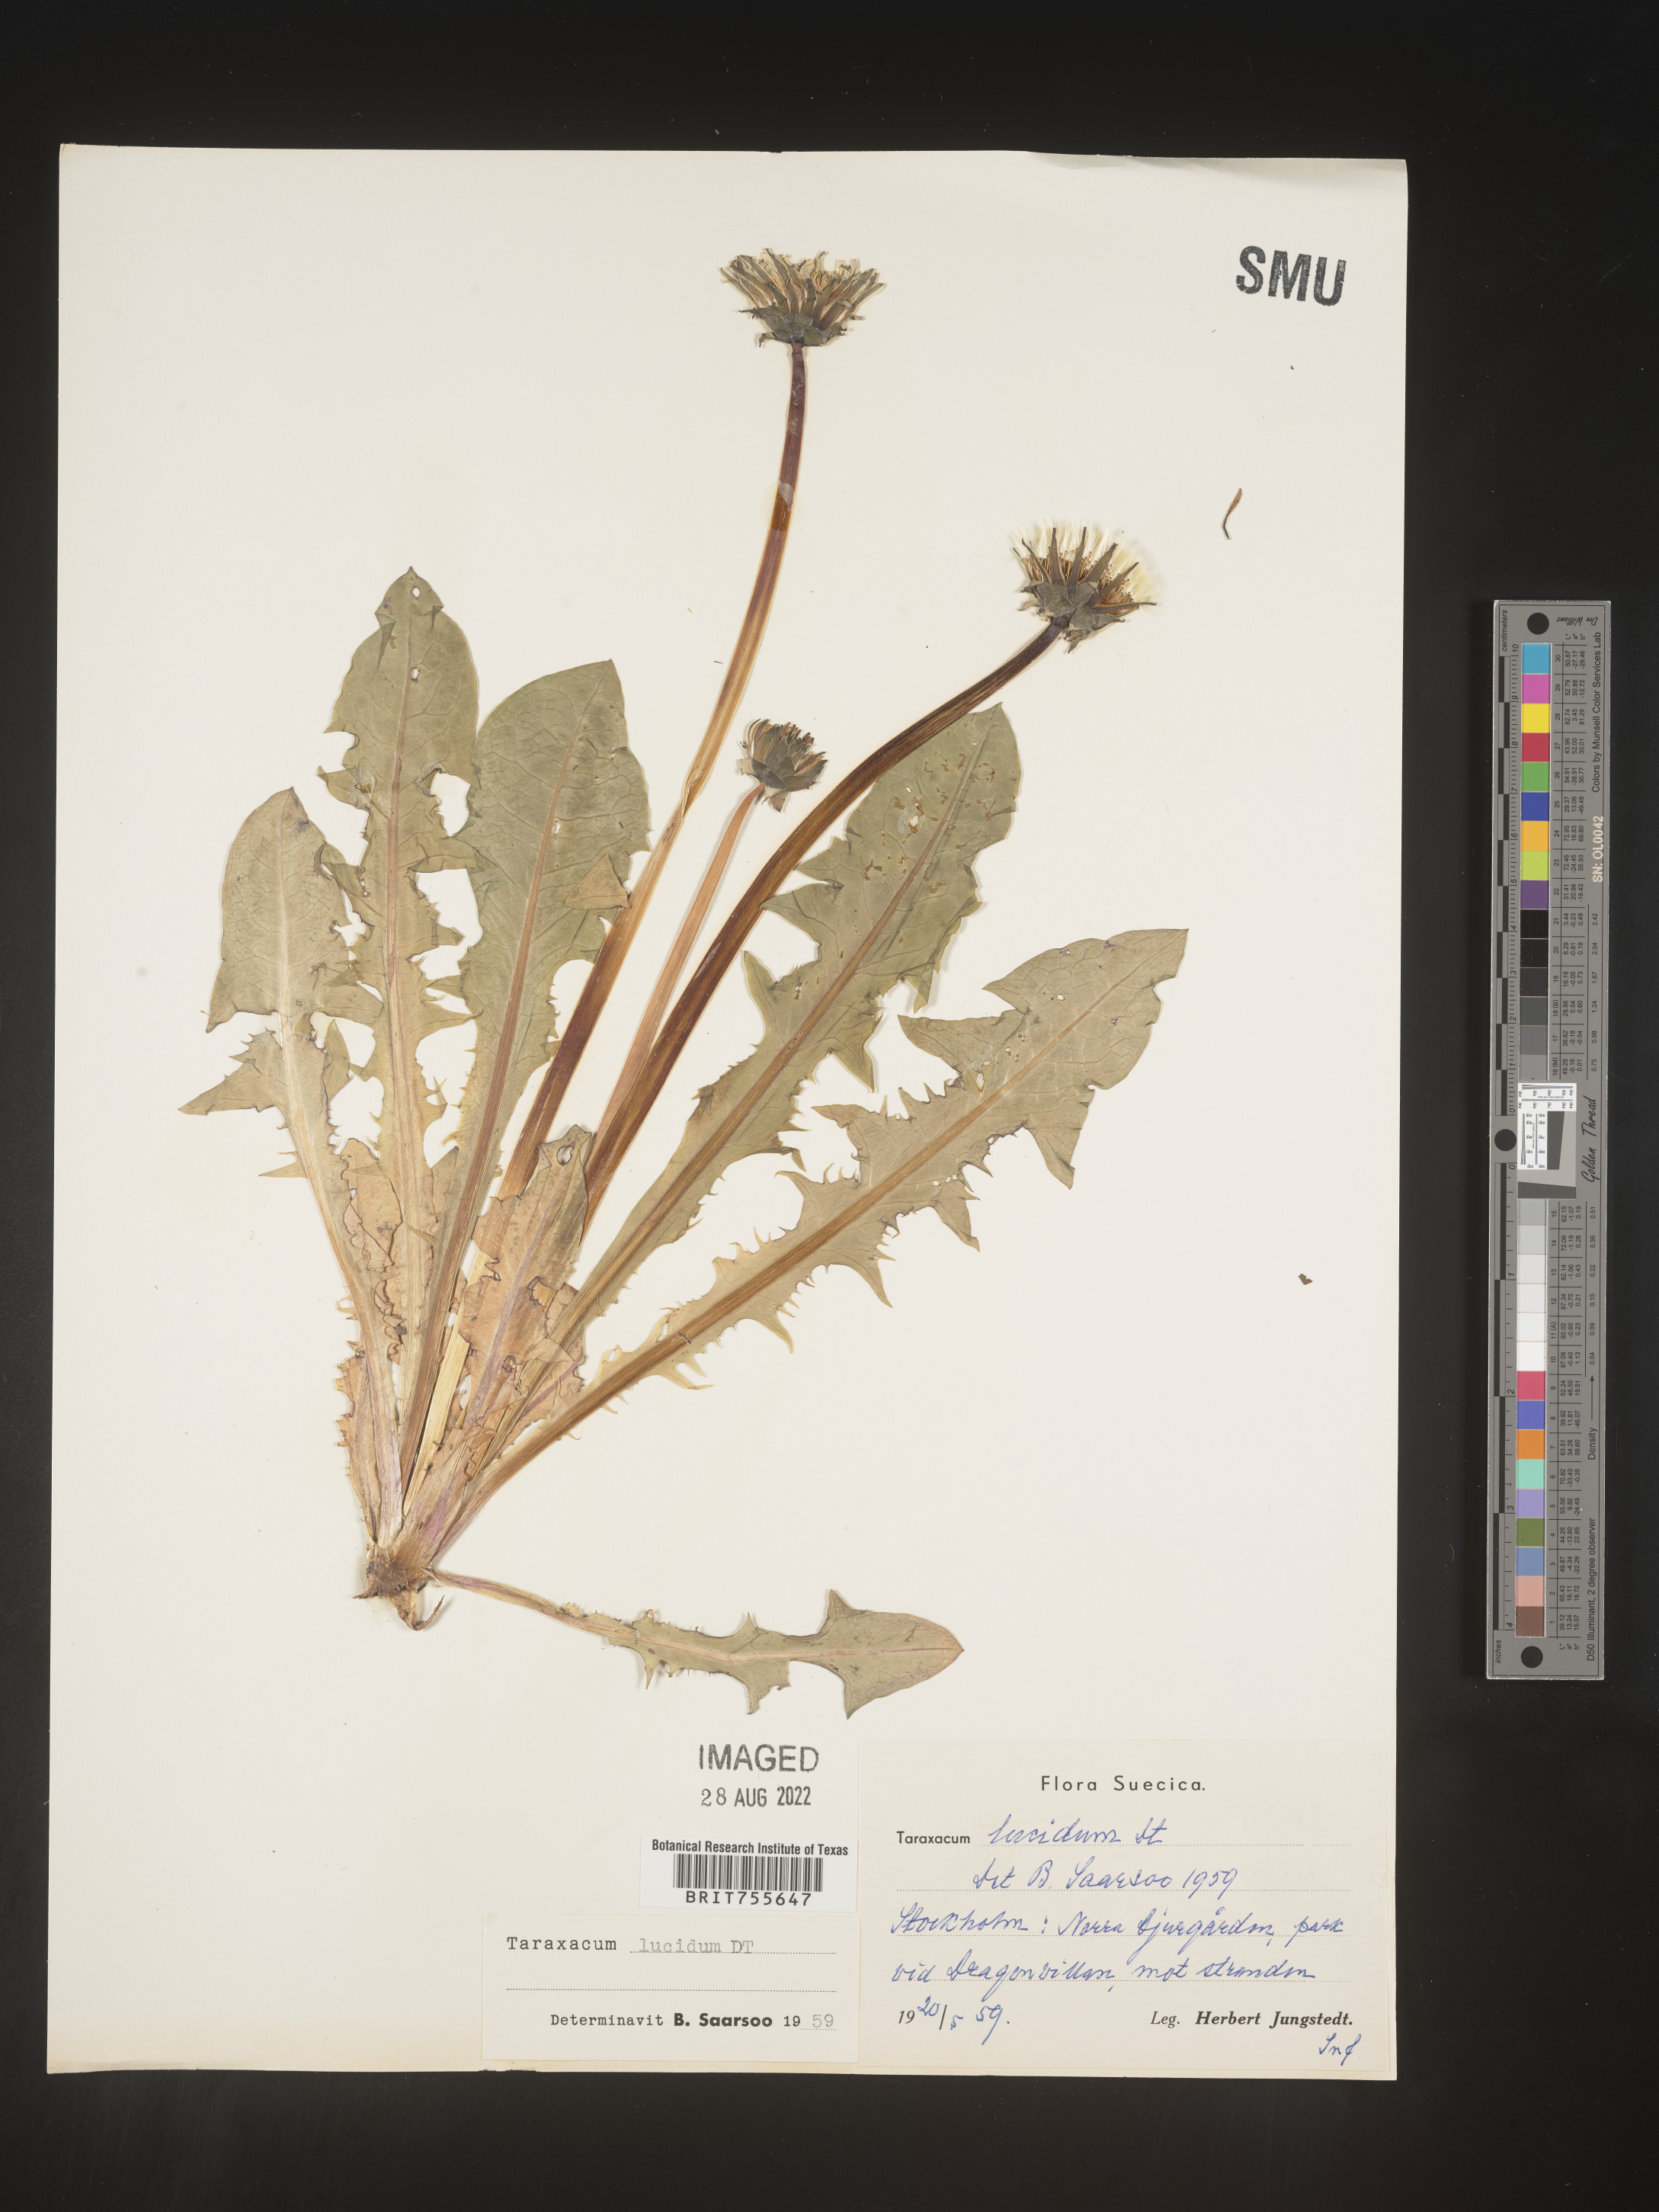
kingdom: Plantae
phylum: Tracheophyta
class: Magnoliopsida
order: Asterales
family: Asteraceae
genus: Taraxacum
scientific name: Taraxacum
